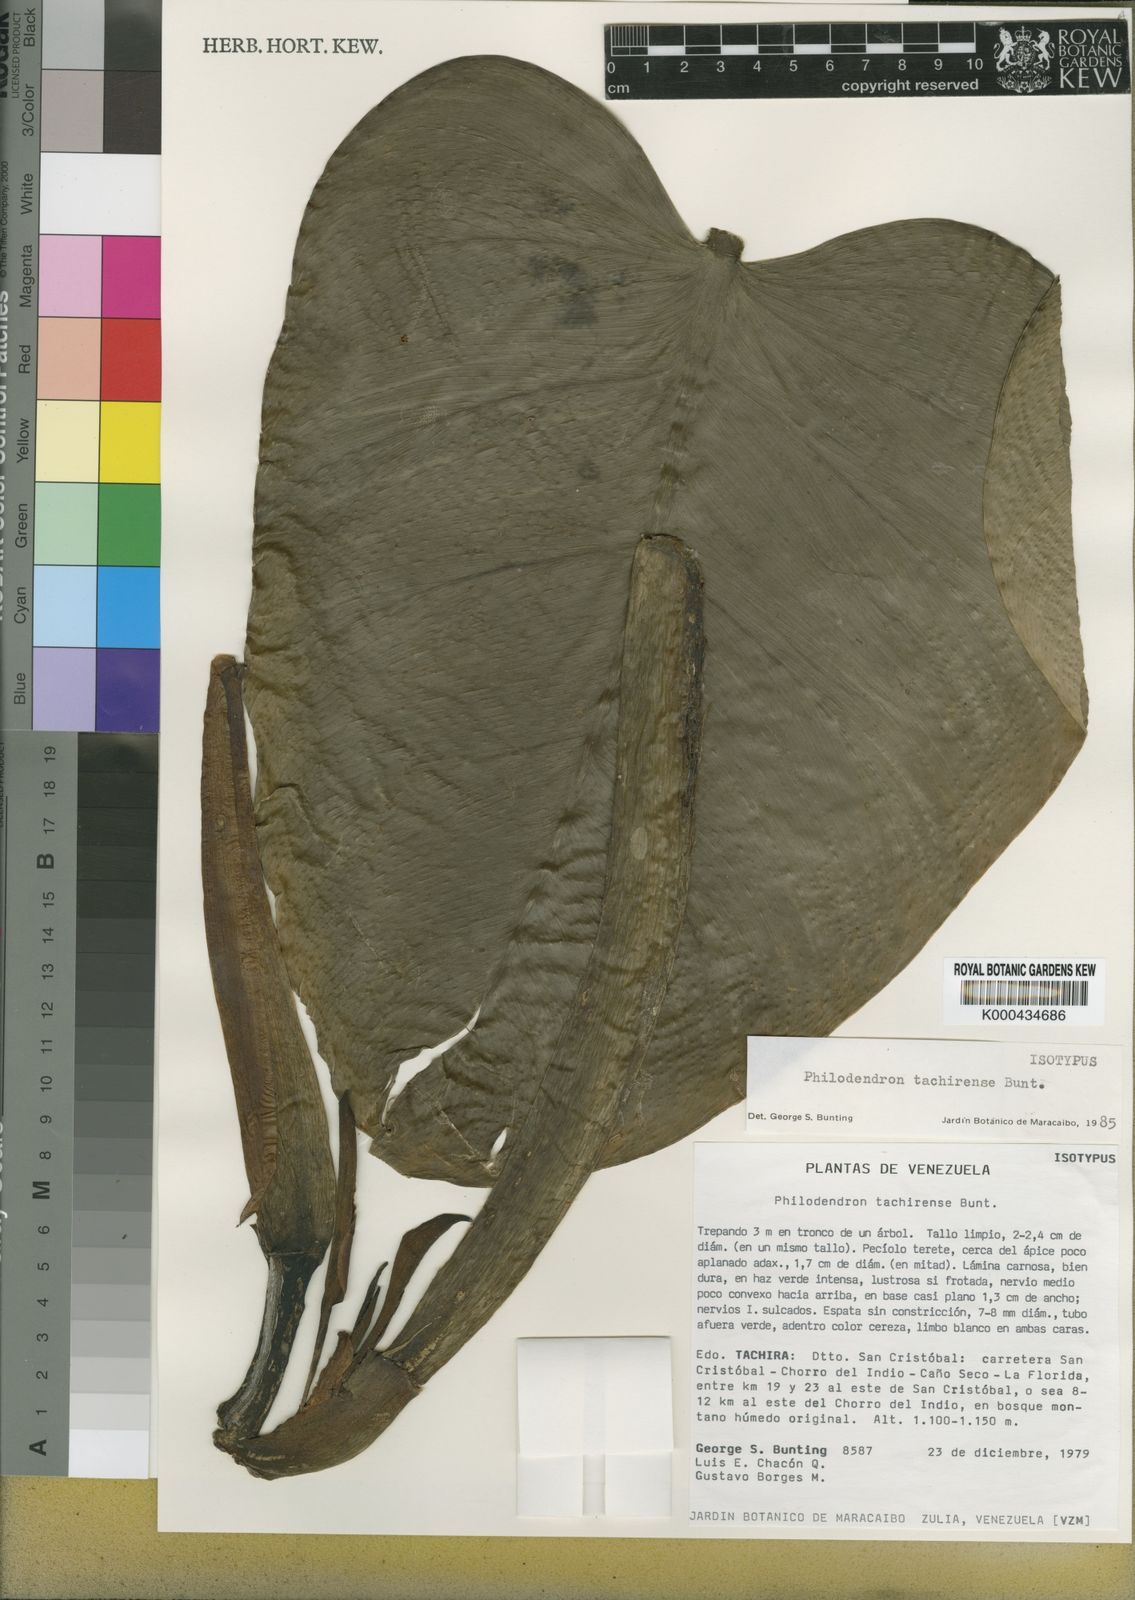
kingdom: Plantae
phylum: Tracheophyta
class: Liliopsida
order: Alismatales
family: Araceae
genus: Philodendron
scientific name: Philodendron tachirense
